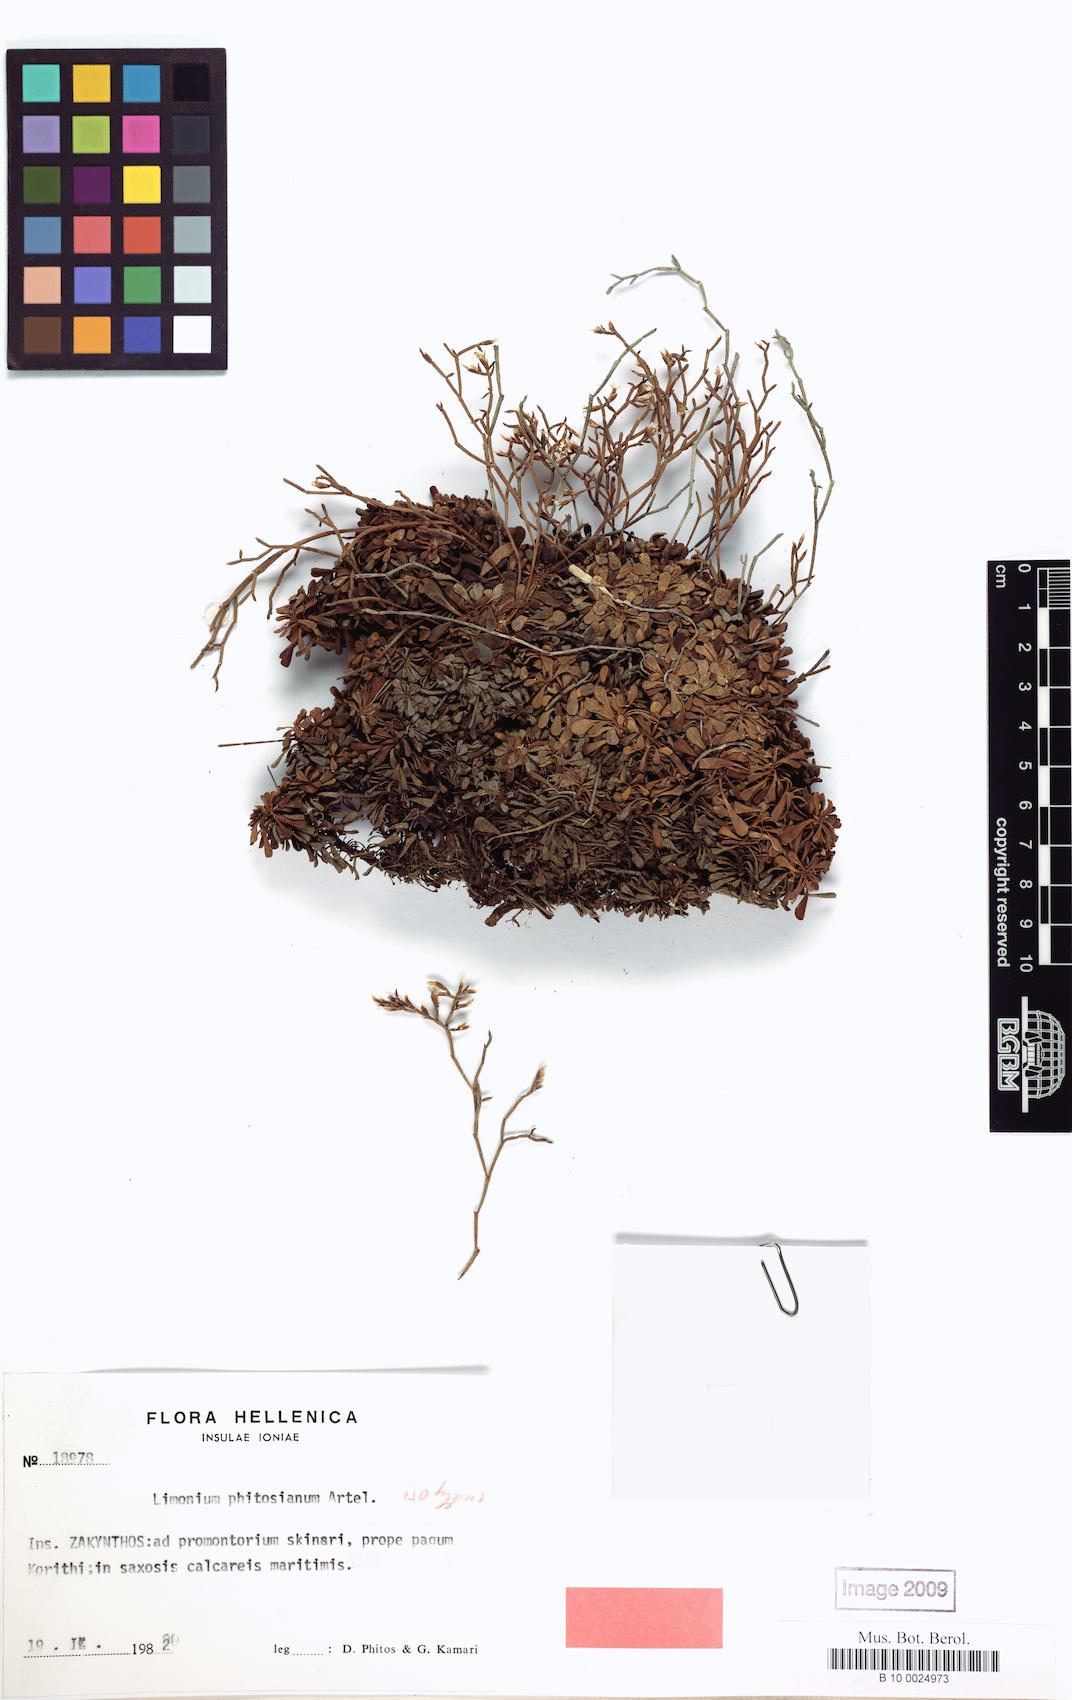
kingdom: Plantae
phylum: Tracheophyta
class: Magnoliopsida
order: Caryophyllales
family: Plumbaginaceae
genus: Limonium
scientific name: Limonium phitosianum
